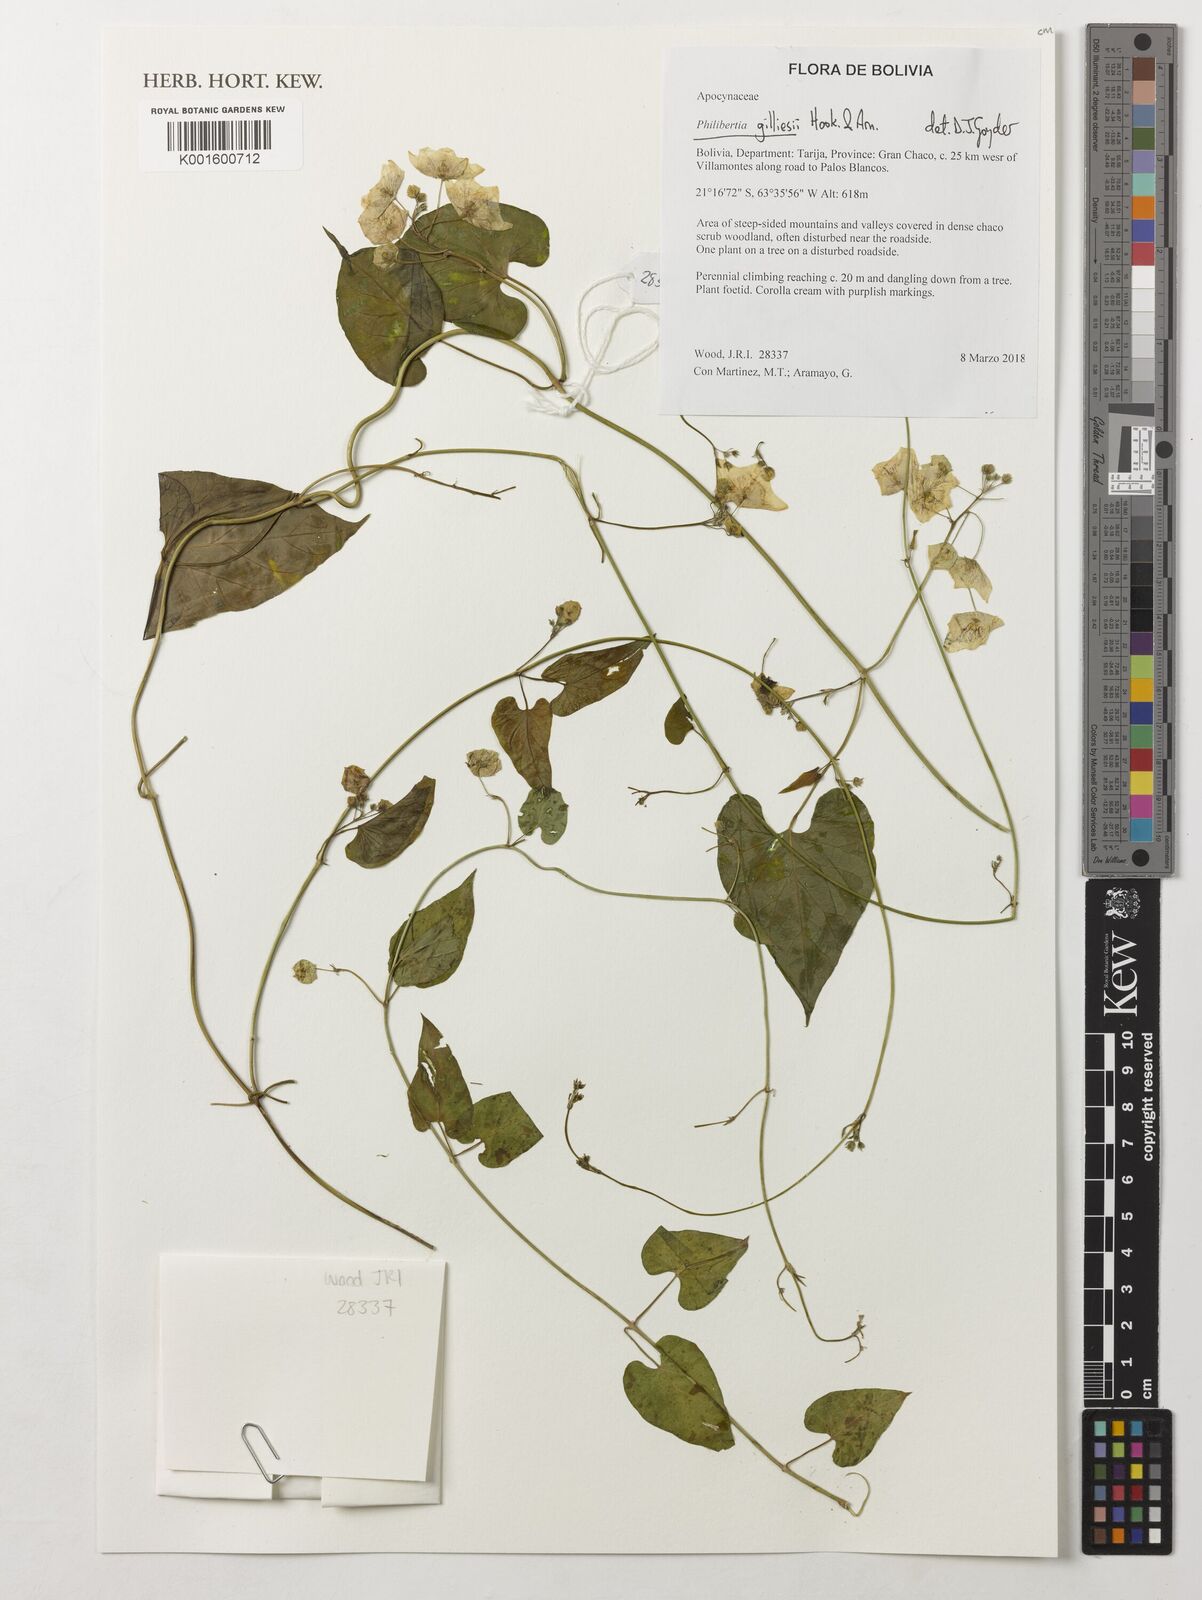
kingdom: Plantae
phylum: Tracheophyta
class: Magnoliopsida
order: Gentianales
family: Apocynaceae
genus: Philibertia
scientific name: Philibertia gilliesii
